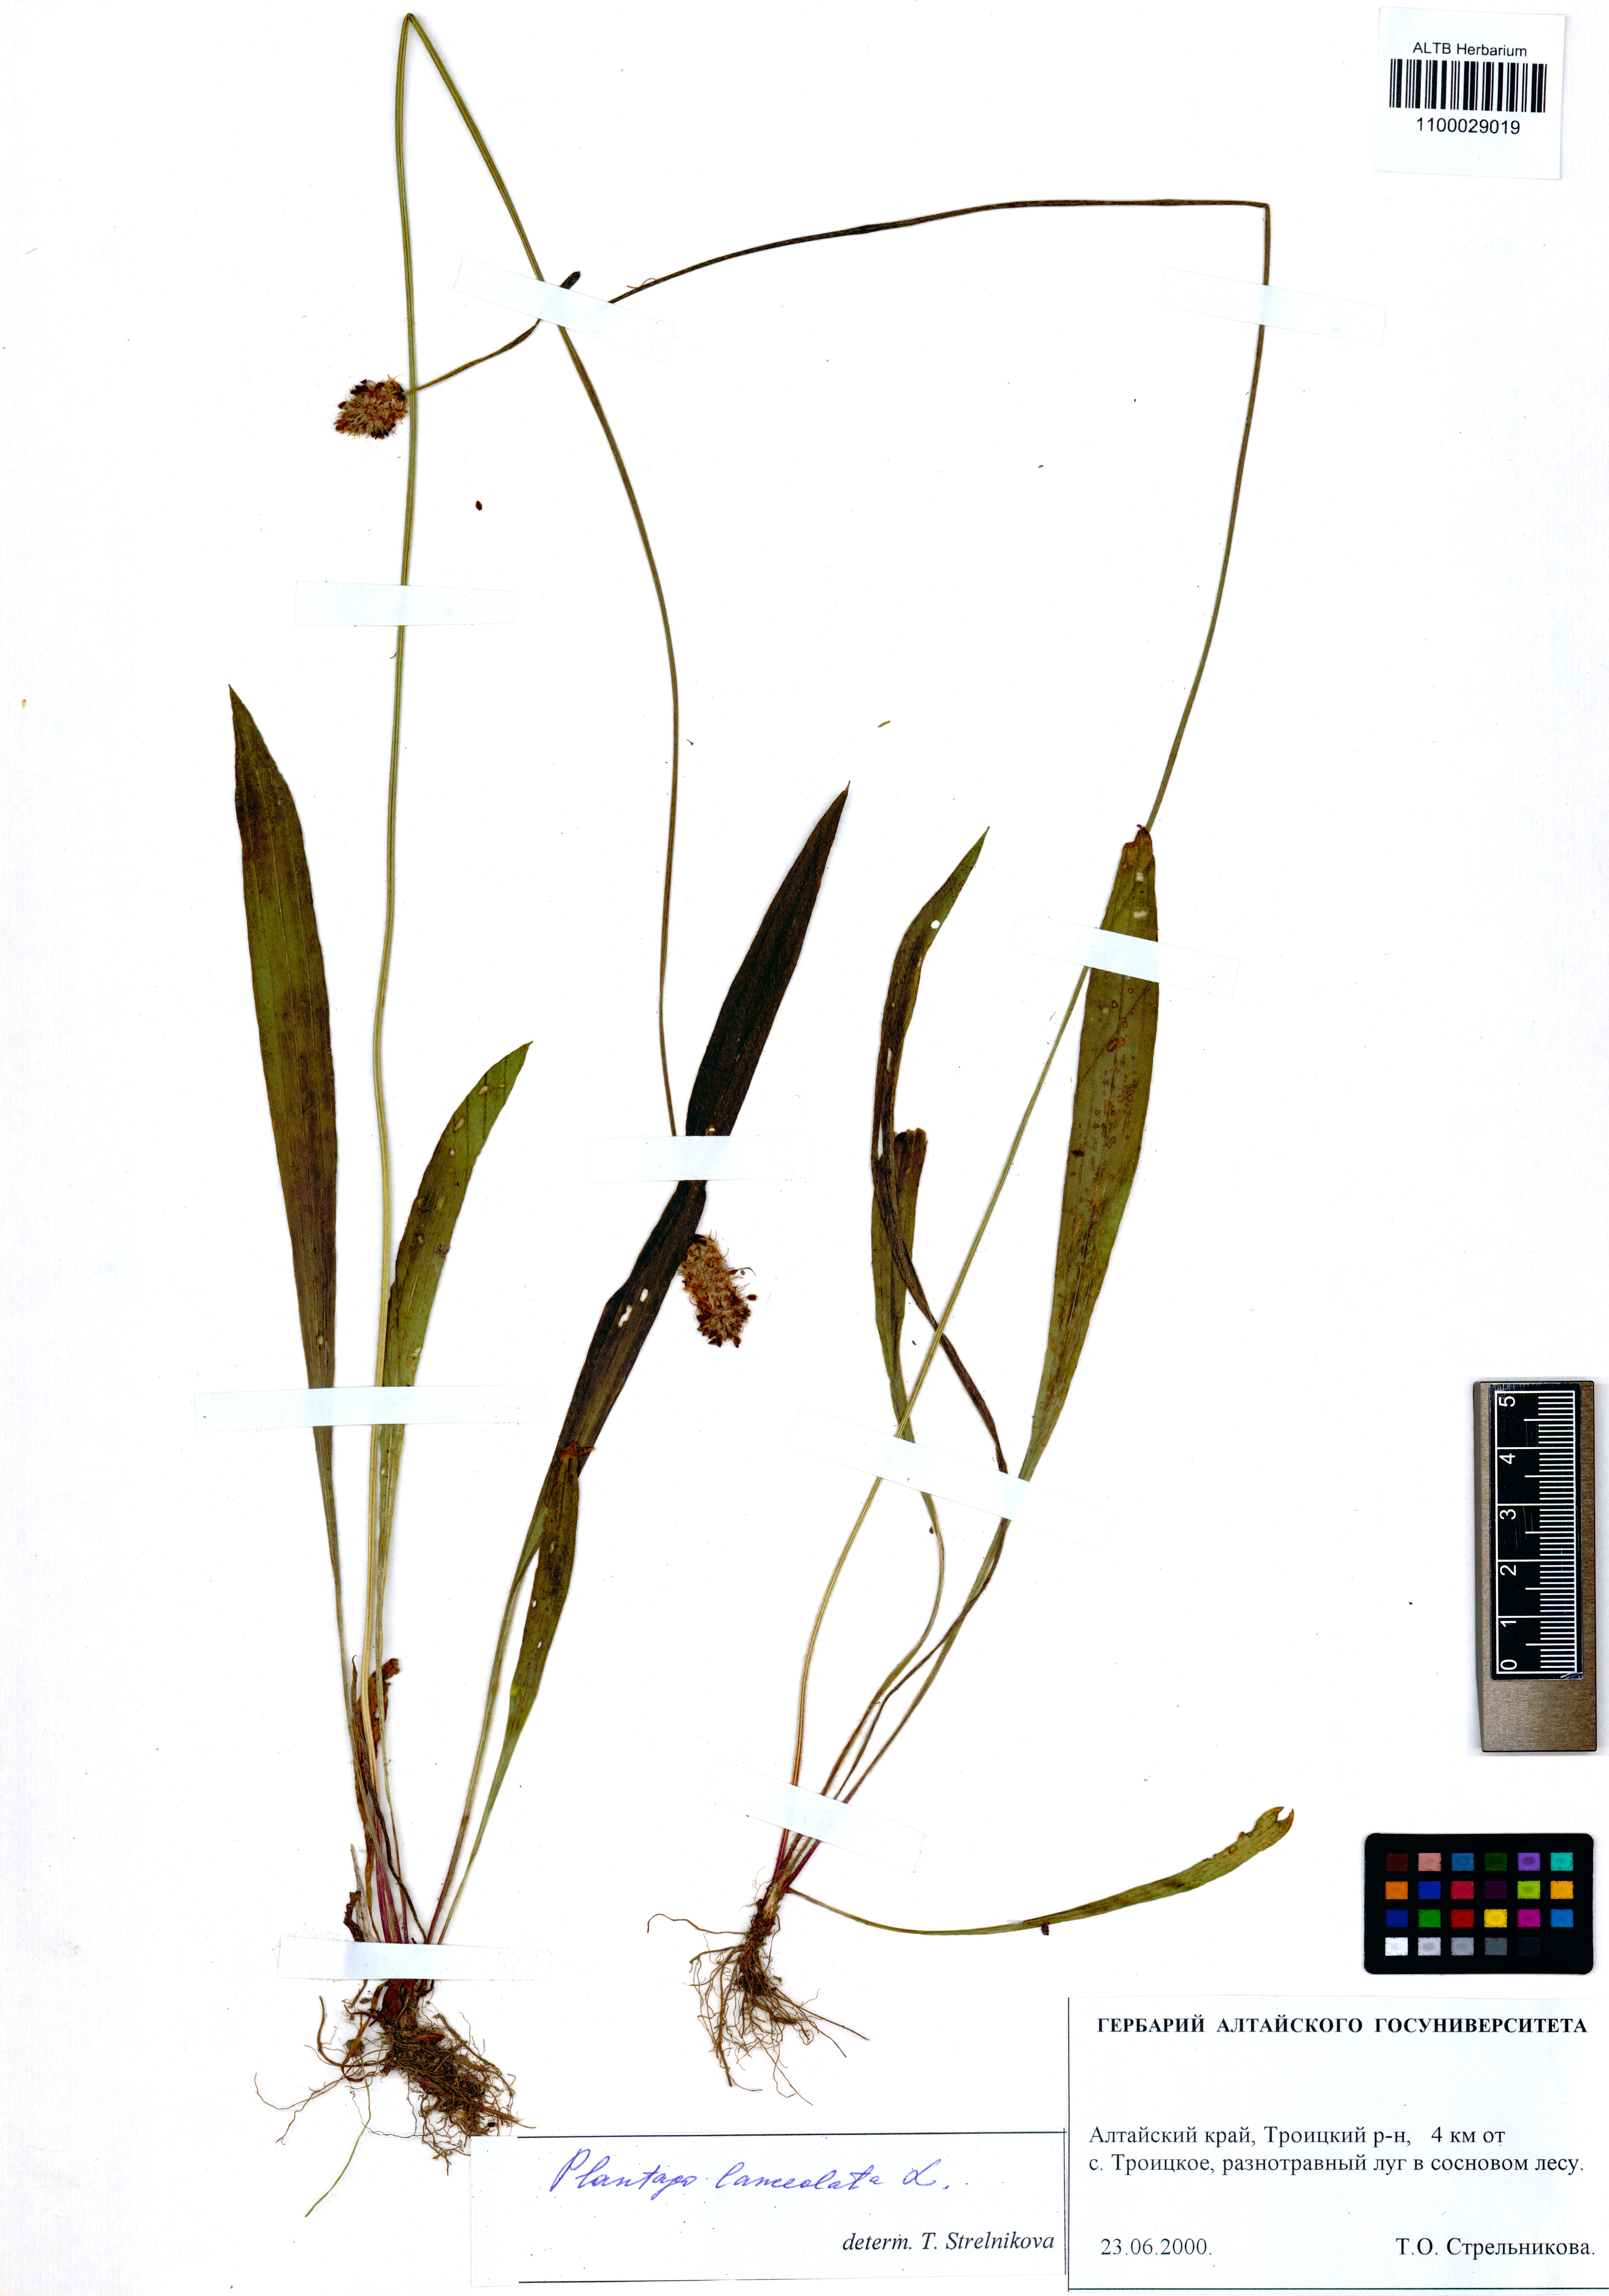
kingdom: Plantae
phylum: Tracheophyta
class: Magnoliopsida
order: Lamiales
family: Plantaginaceae
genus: Plantago
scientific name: Plantago lanceolata
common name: Ribwort plantain
